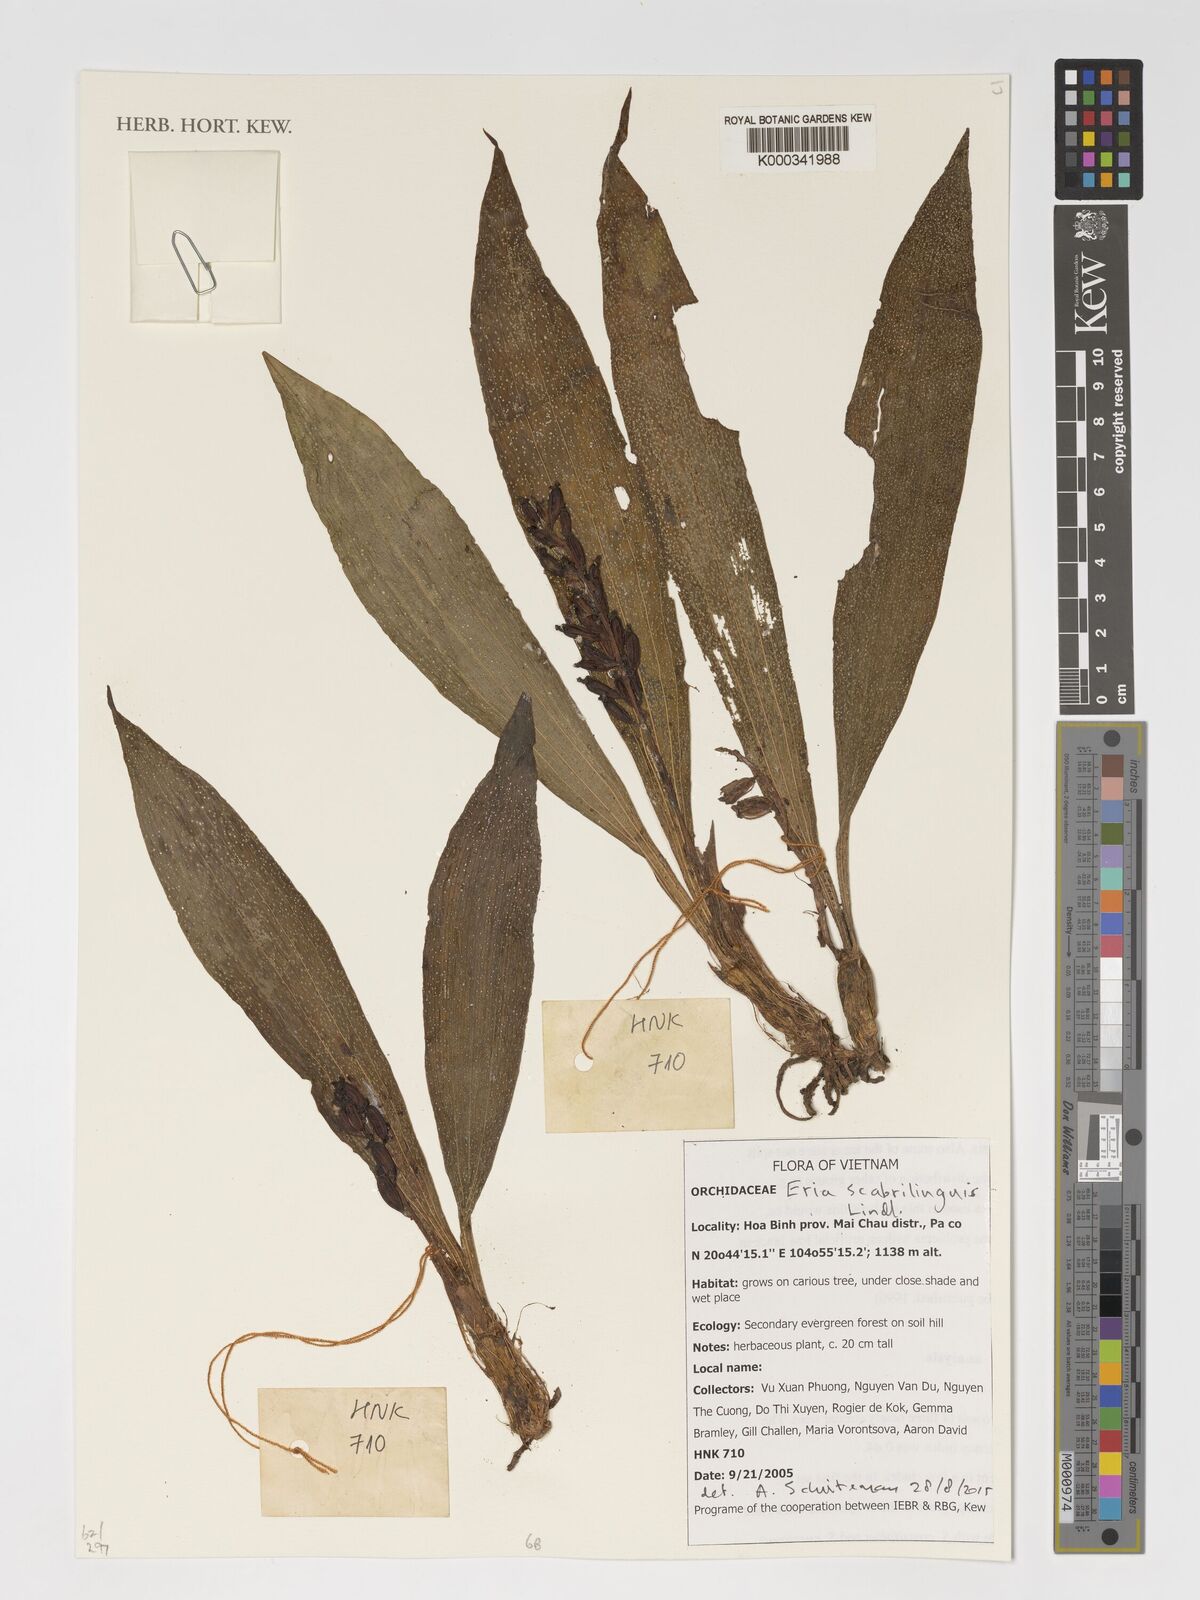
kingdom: Plantae
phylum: Tracheophyta
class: Liliopsida
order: Asparagales
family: Orchidaceae
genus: Eria
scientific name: Eria scabrilinguis
